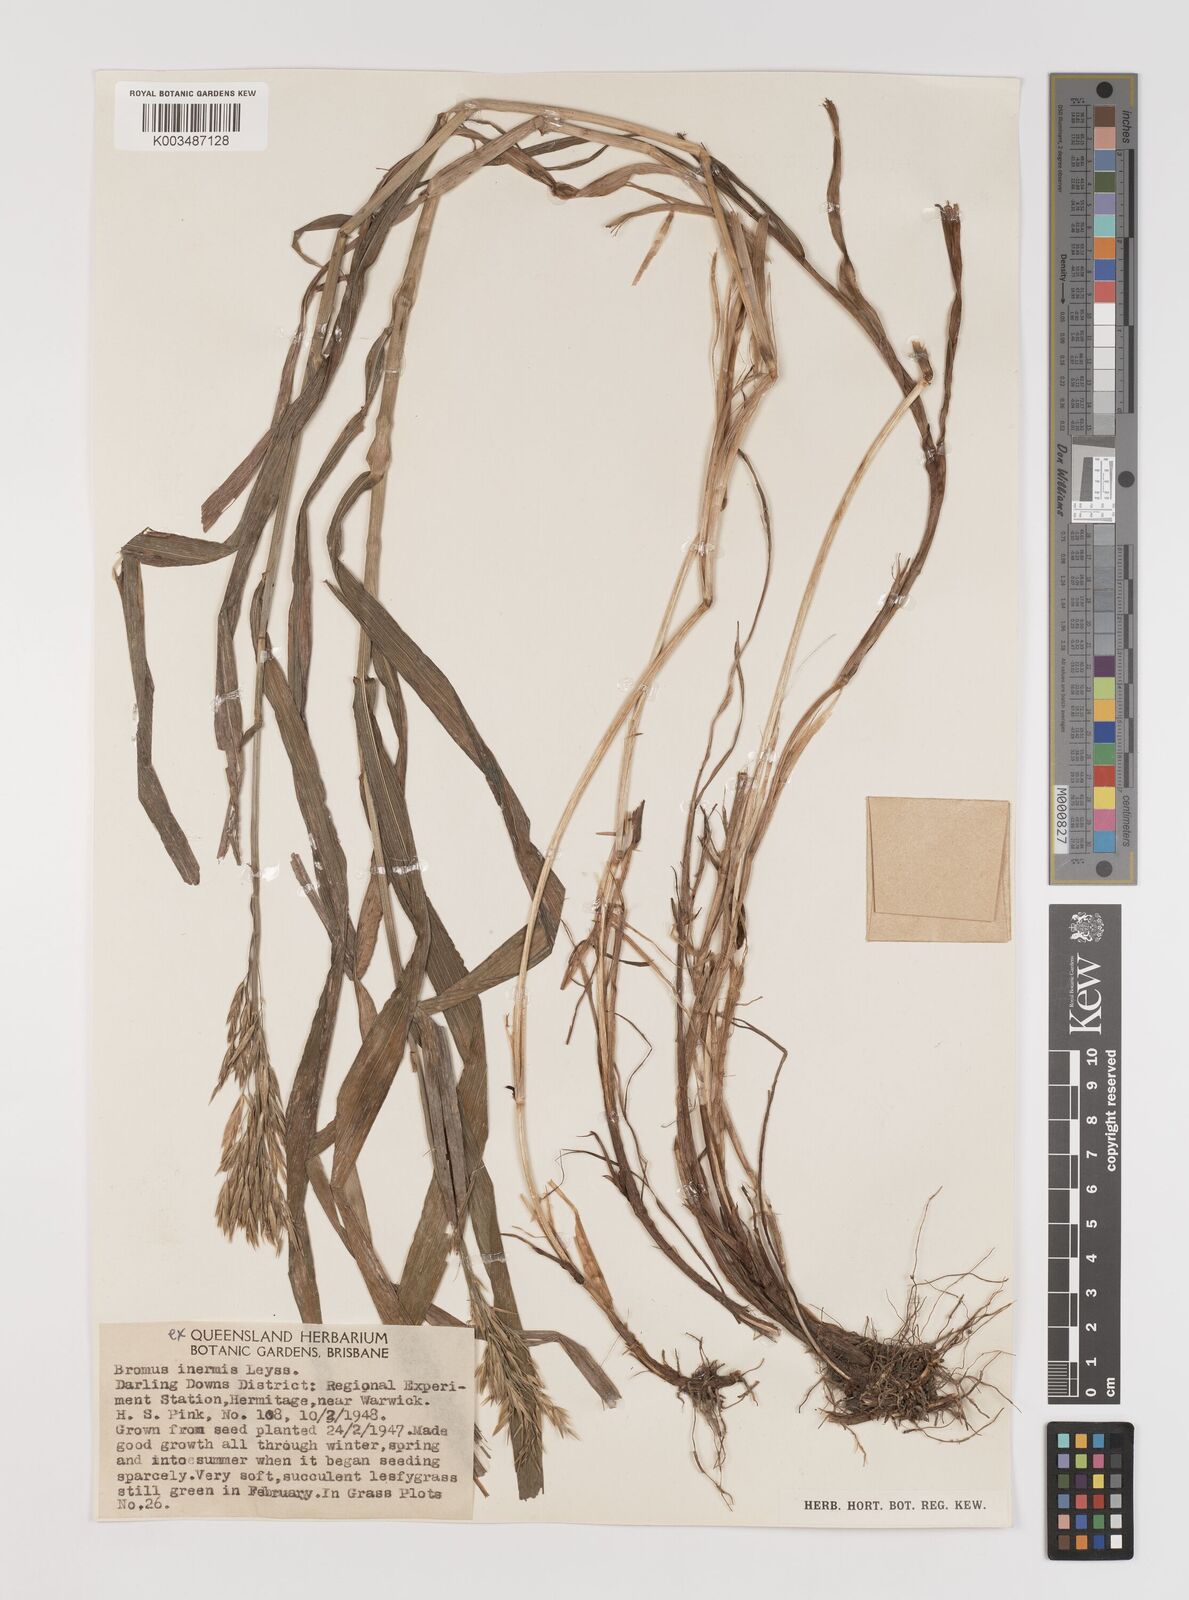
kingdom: Plantae
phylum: Tracheophyta
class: Liliopsida
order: Poales
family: Poaceae
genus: Bromus
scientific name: Bromus
